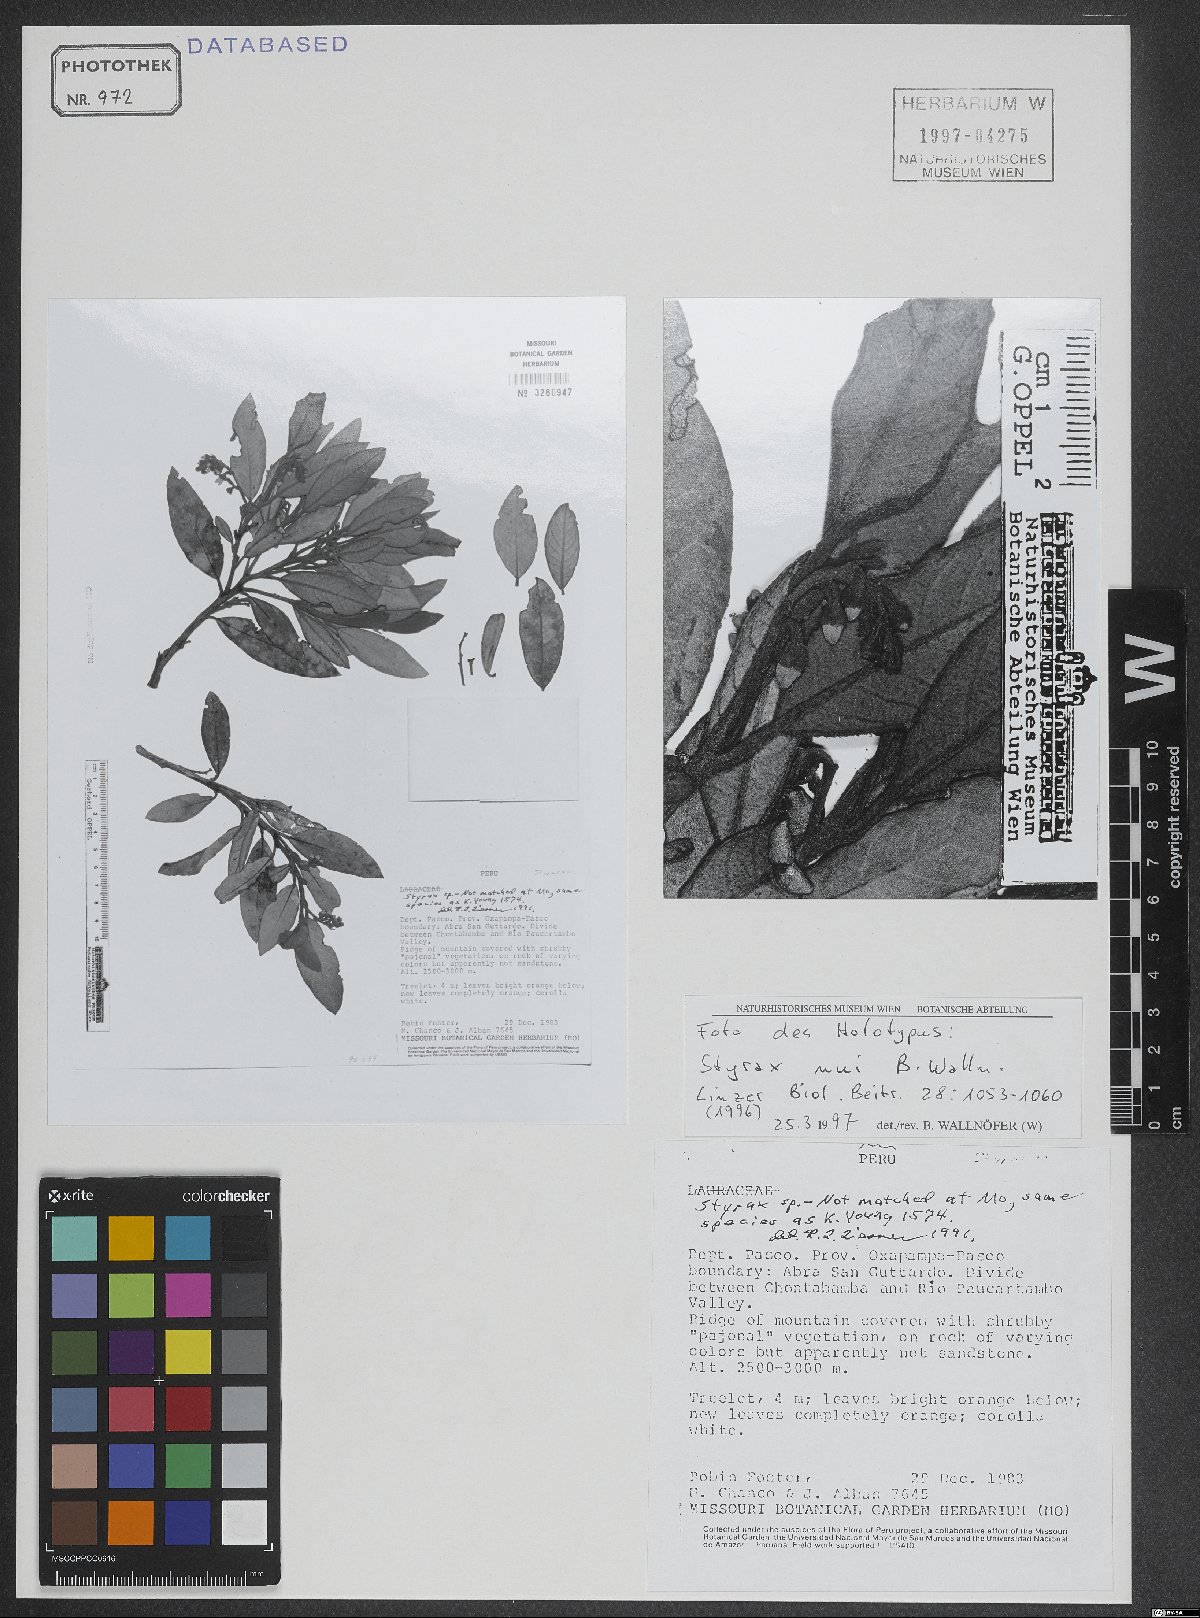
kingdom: Plantae
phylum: Tracheophyta
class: Magnoliopsida
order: Ericales
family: Styracaceae
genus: Styrax
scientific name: Styrax nui
